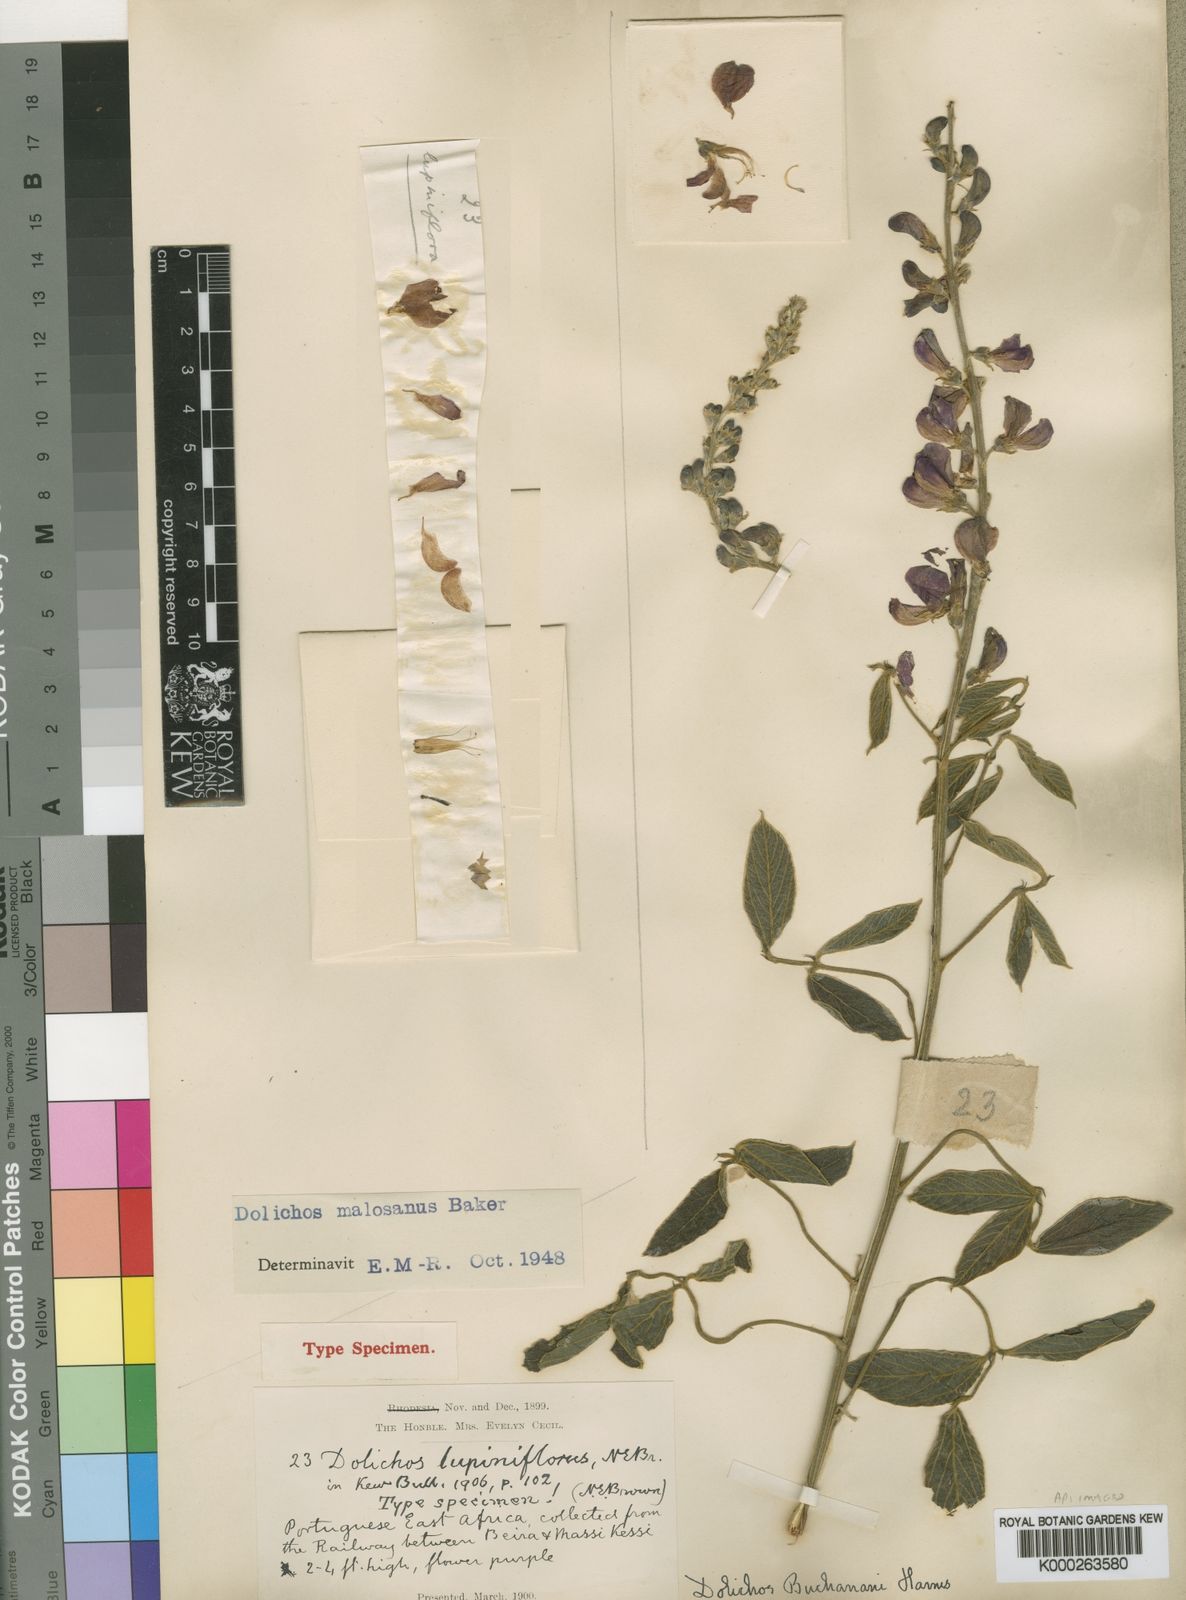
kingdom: Plantae
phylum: Tracheophyta
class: Magnoliopsida
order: Fabales
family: Fabaceae
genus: Dolichos
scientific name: Dolichos kilimandscharicus
